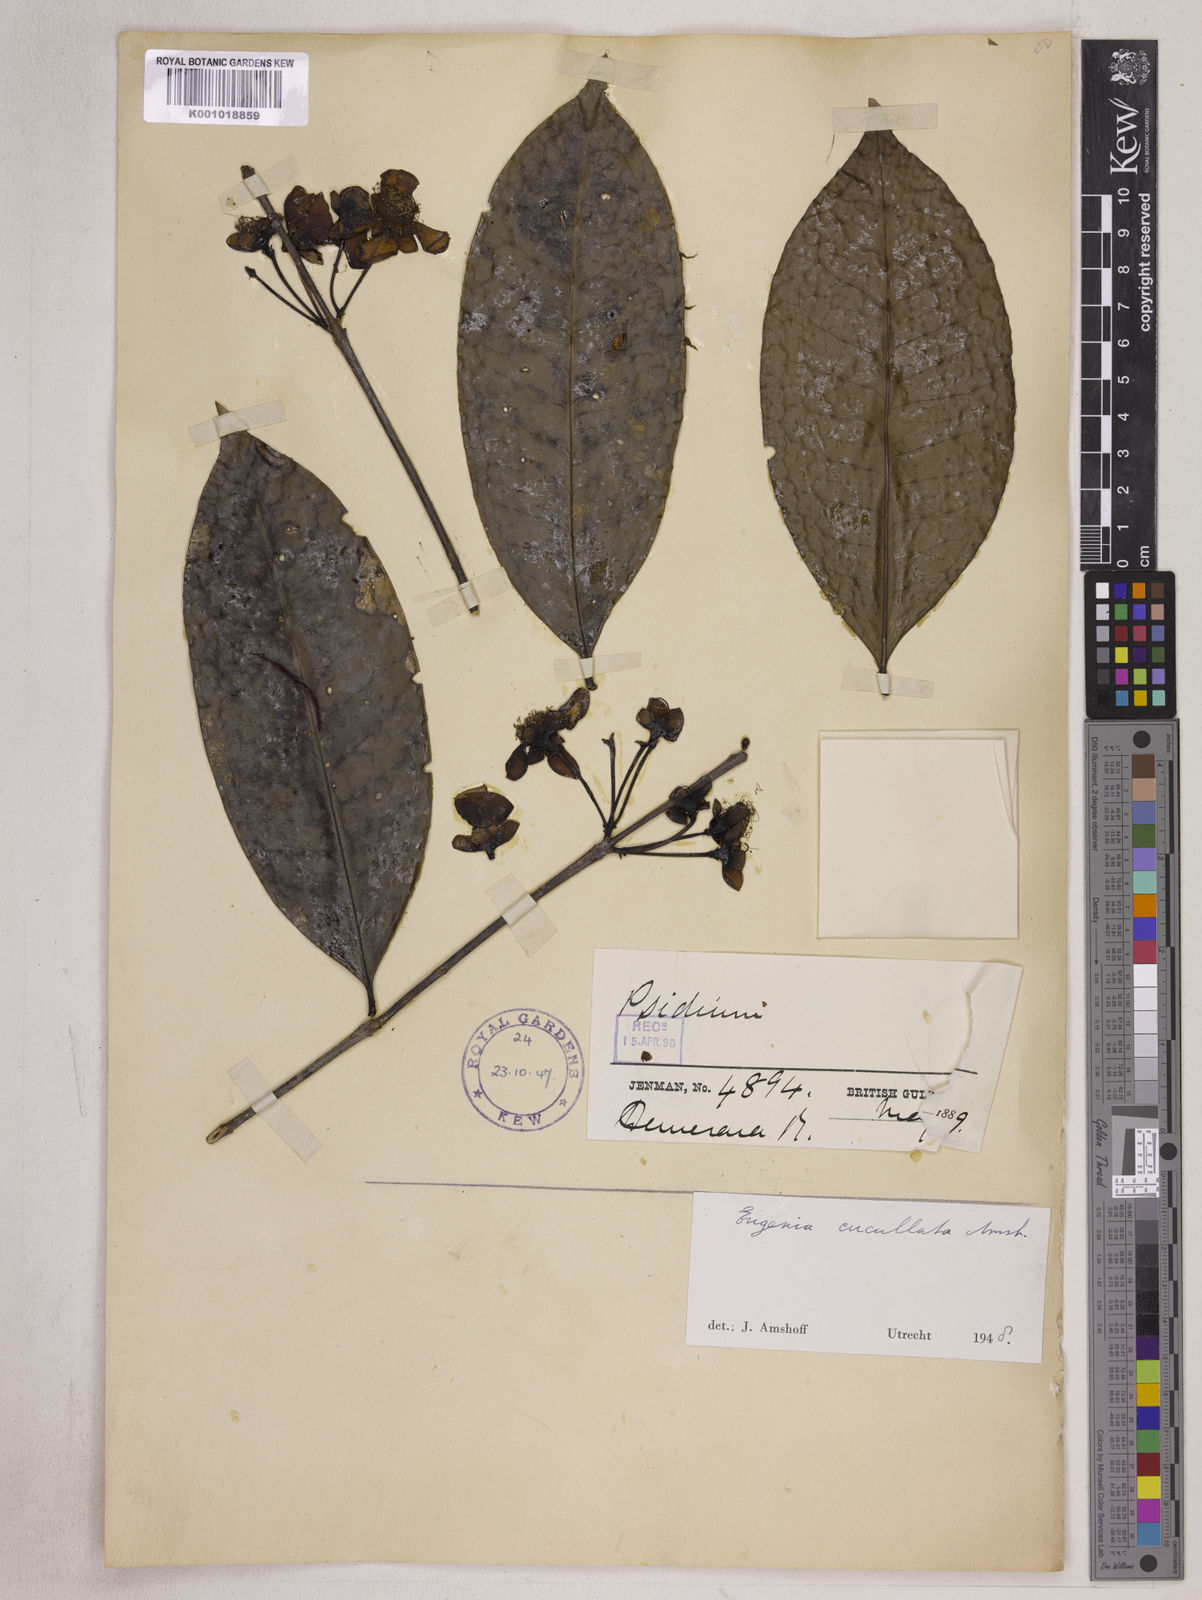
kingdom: Plantae
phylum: Tracheophyta
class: Magnoliopsida
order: Myrtales
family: Myrtaceae
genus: Eugenia
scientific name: Eugenia cucullata
